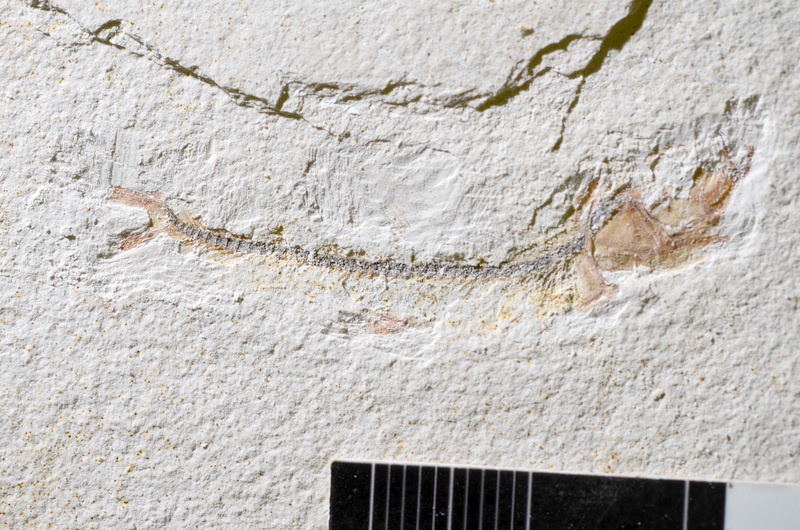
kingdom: Animalia
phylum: Chordata
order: Salmoniformes
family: Orthogonikleithridae
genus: Orthogonikleithrus
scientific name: Orthogonikleithrus hoelli
